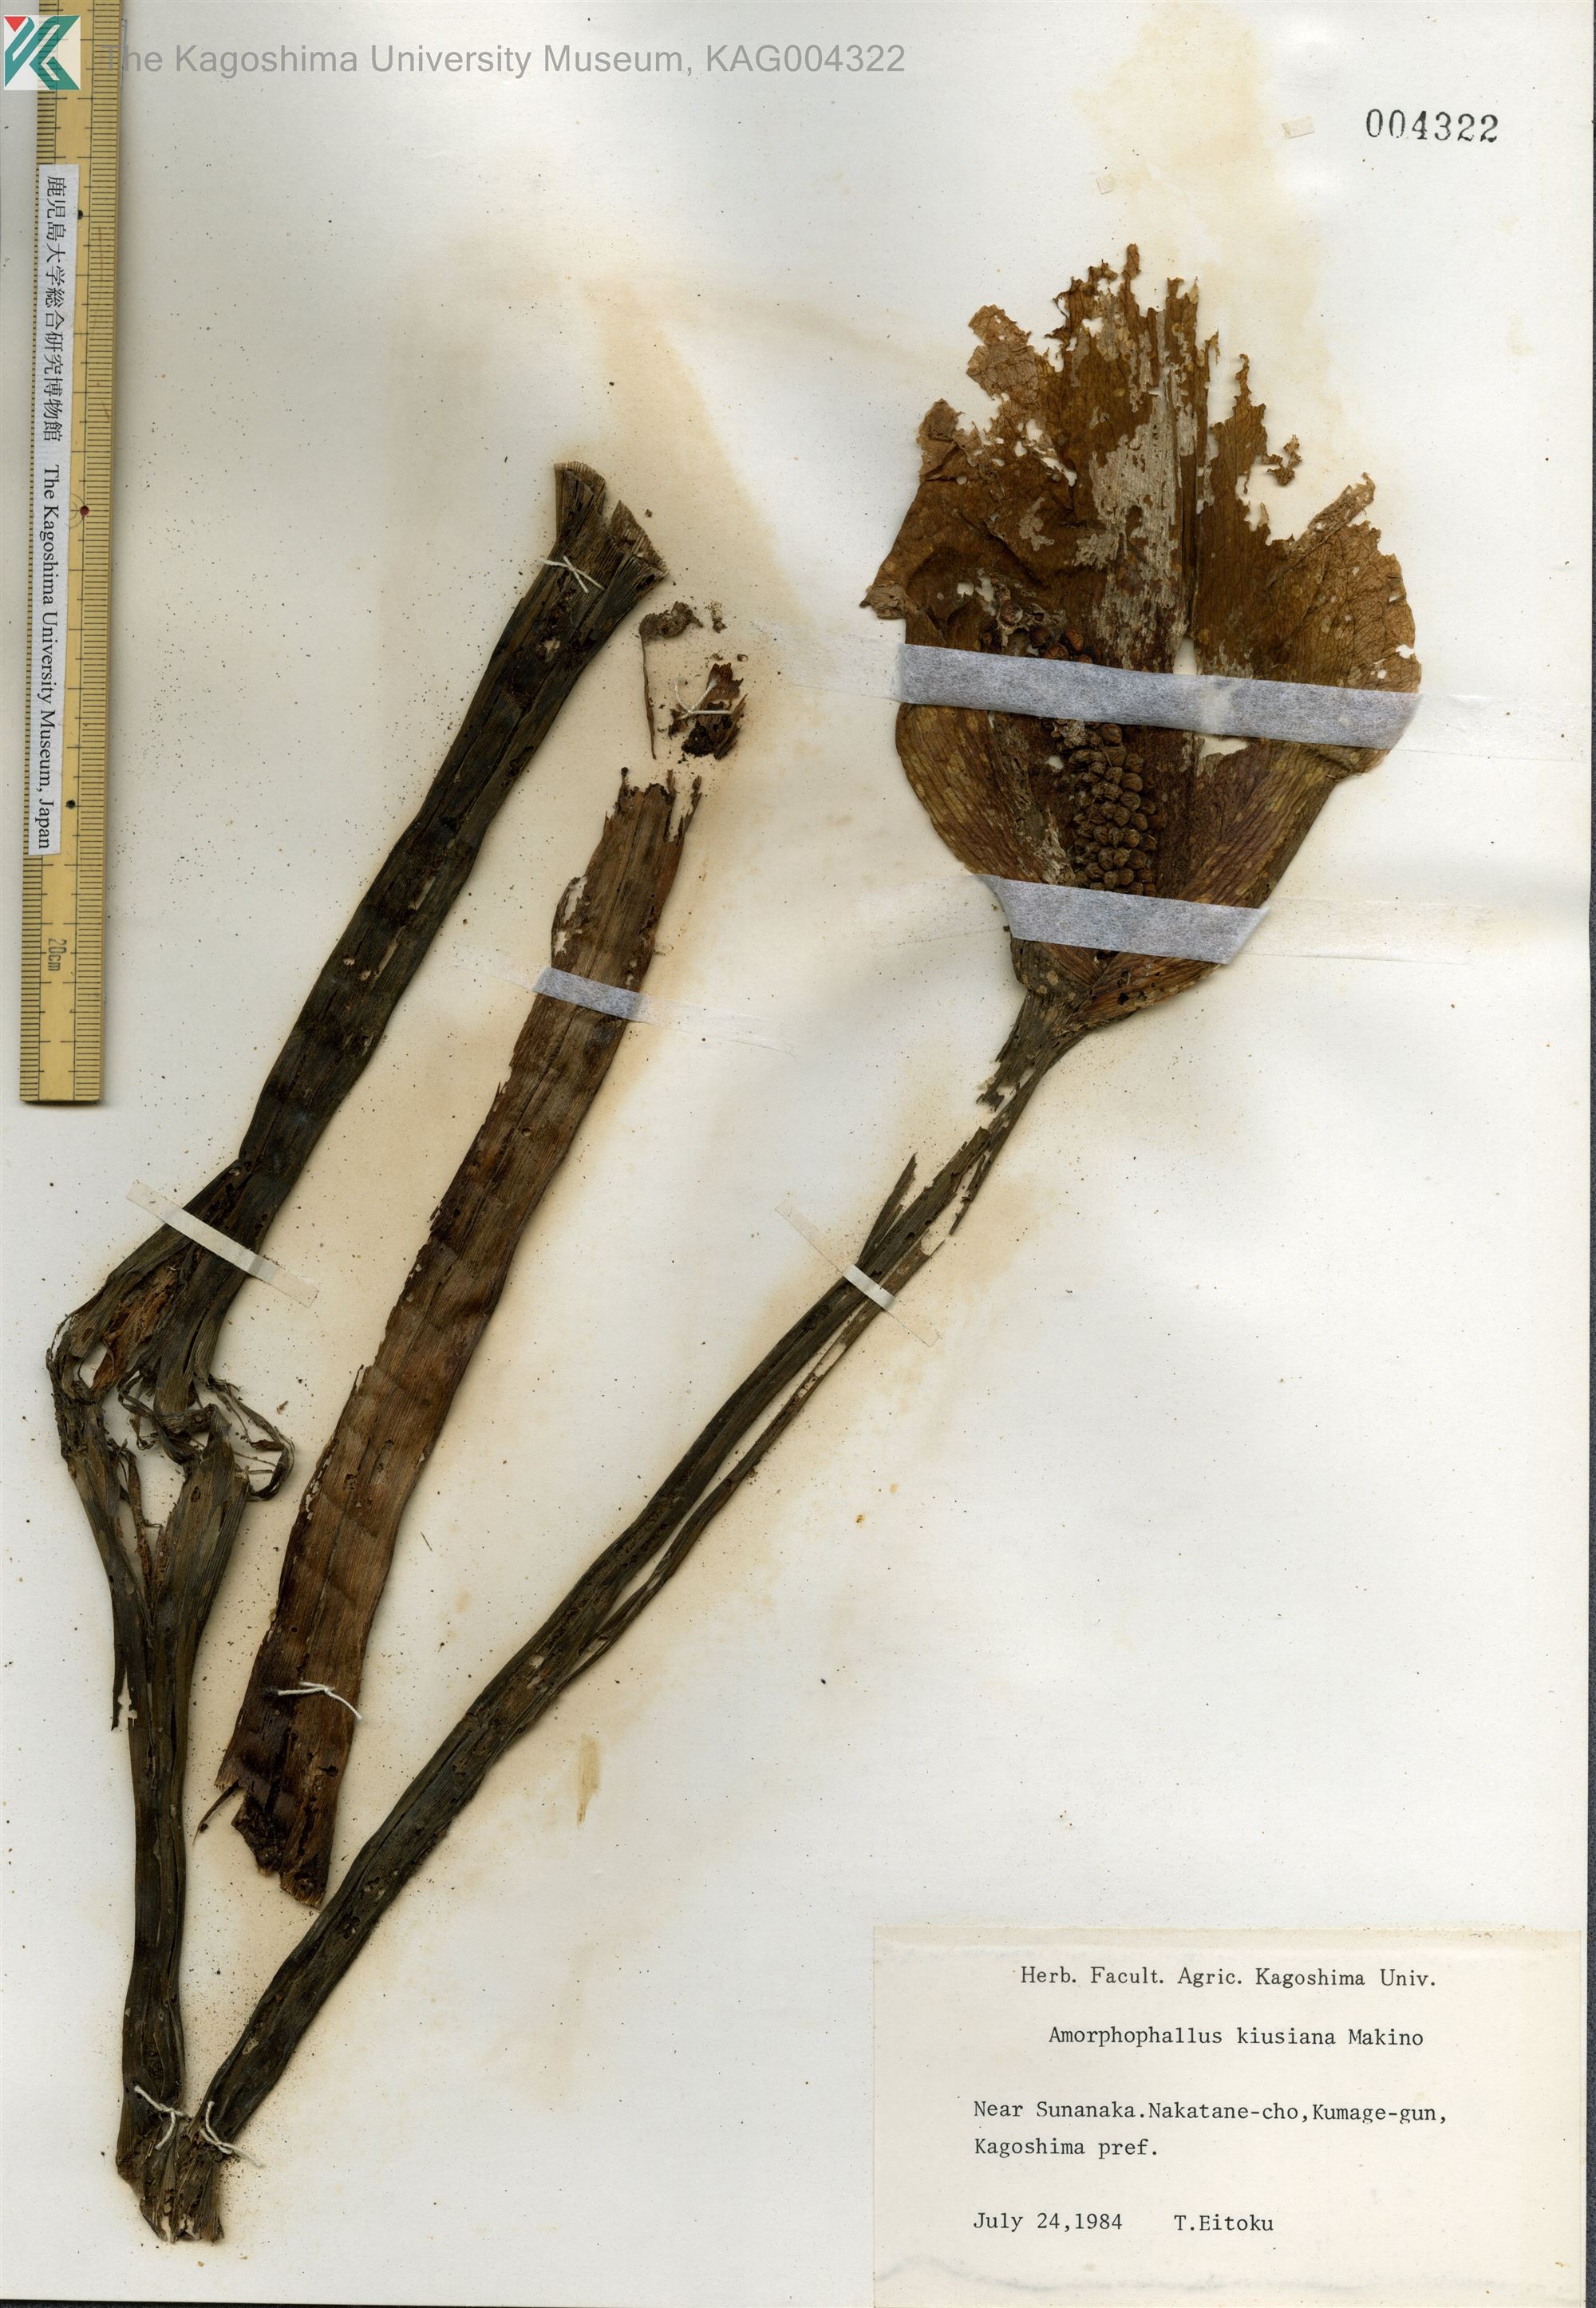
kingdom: Plantae
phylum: Tracheophyta
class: Liliopsida
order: Alismatales
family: Araceae
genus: Amorphophallus
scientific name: Amorphophallus kiusianus
